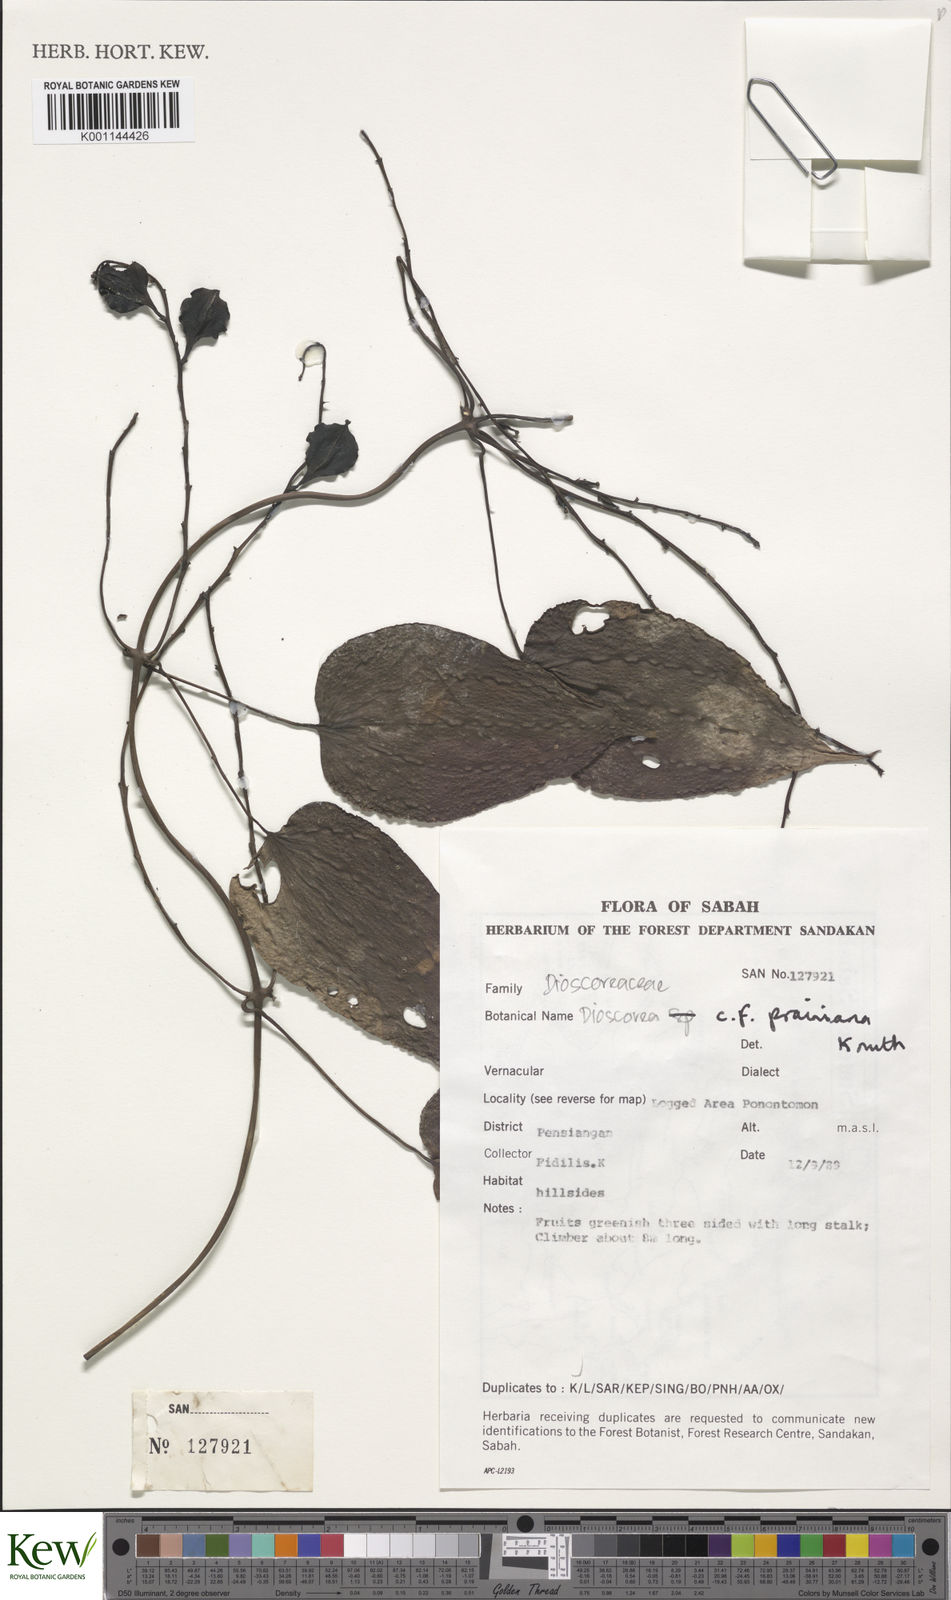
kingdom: Plantae
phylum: Tracheophyta
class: Liliopsida
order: Dioscoreales
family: Dioscoreaceae
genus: Dioscorea
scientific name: Dioscorea
